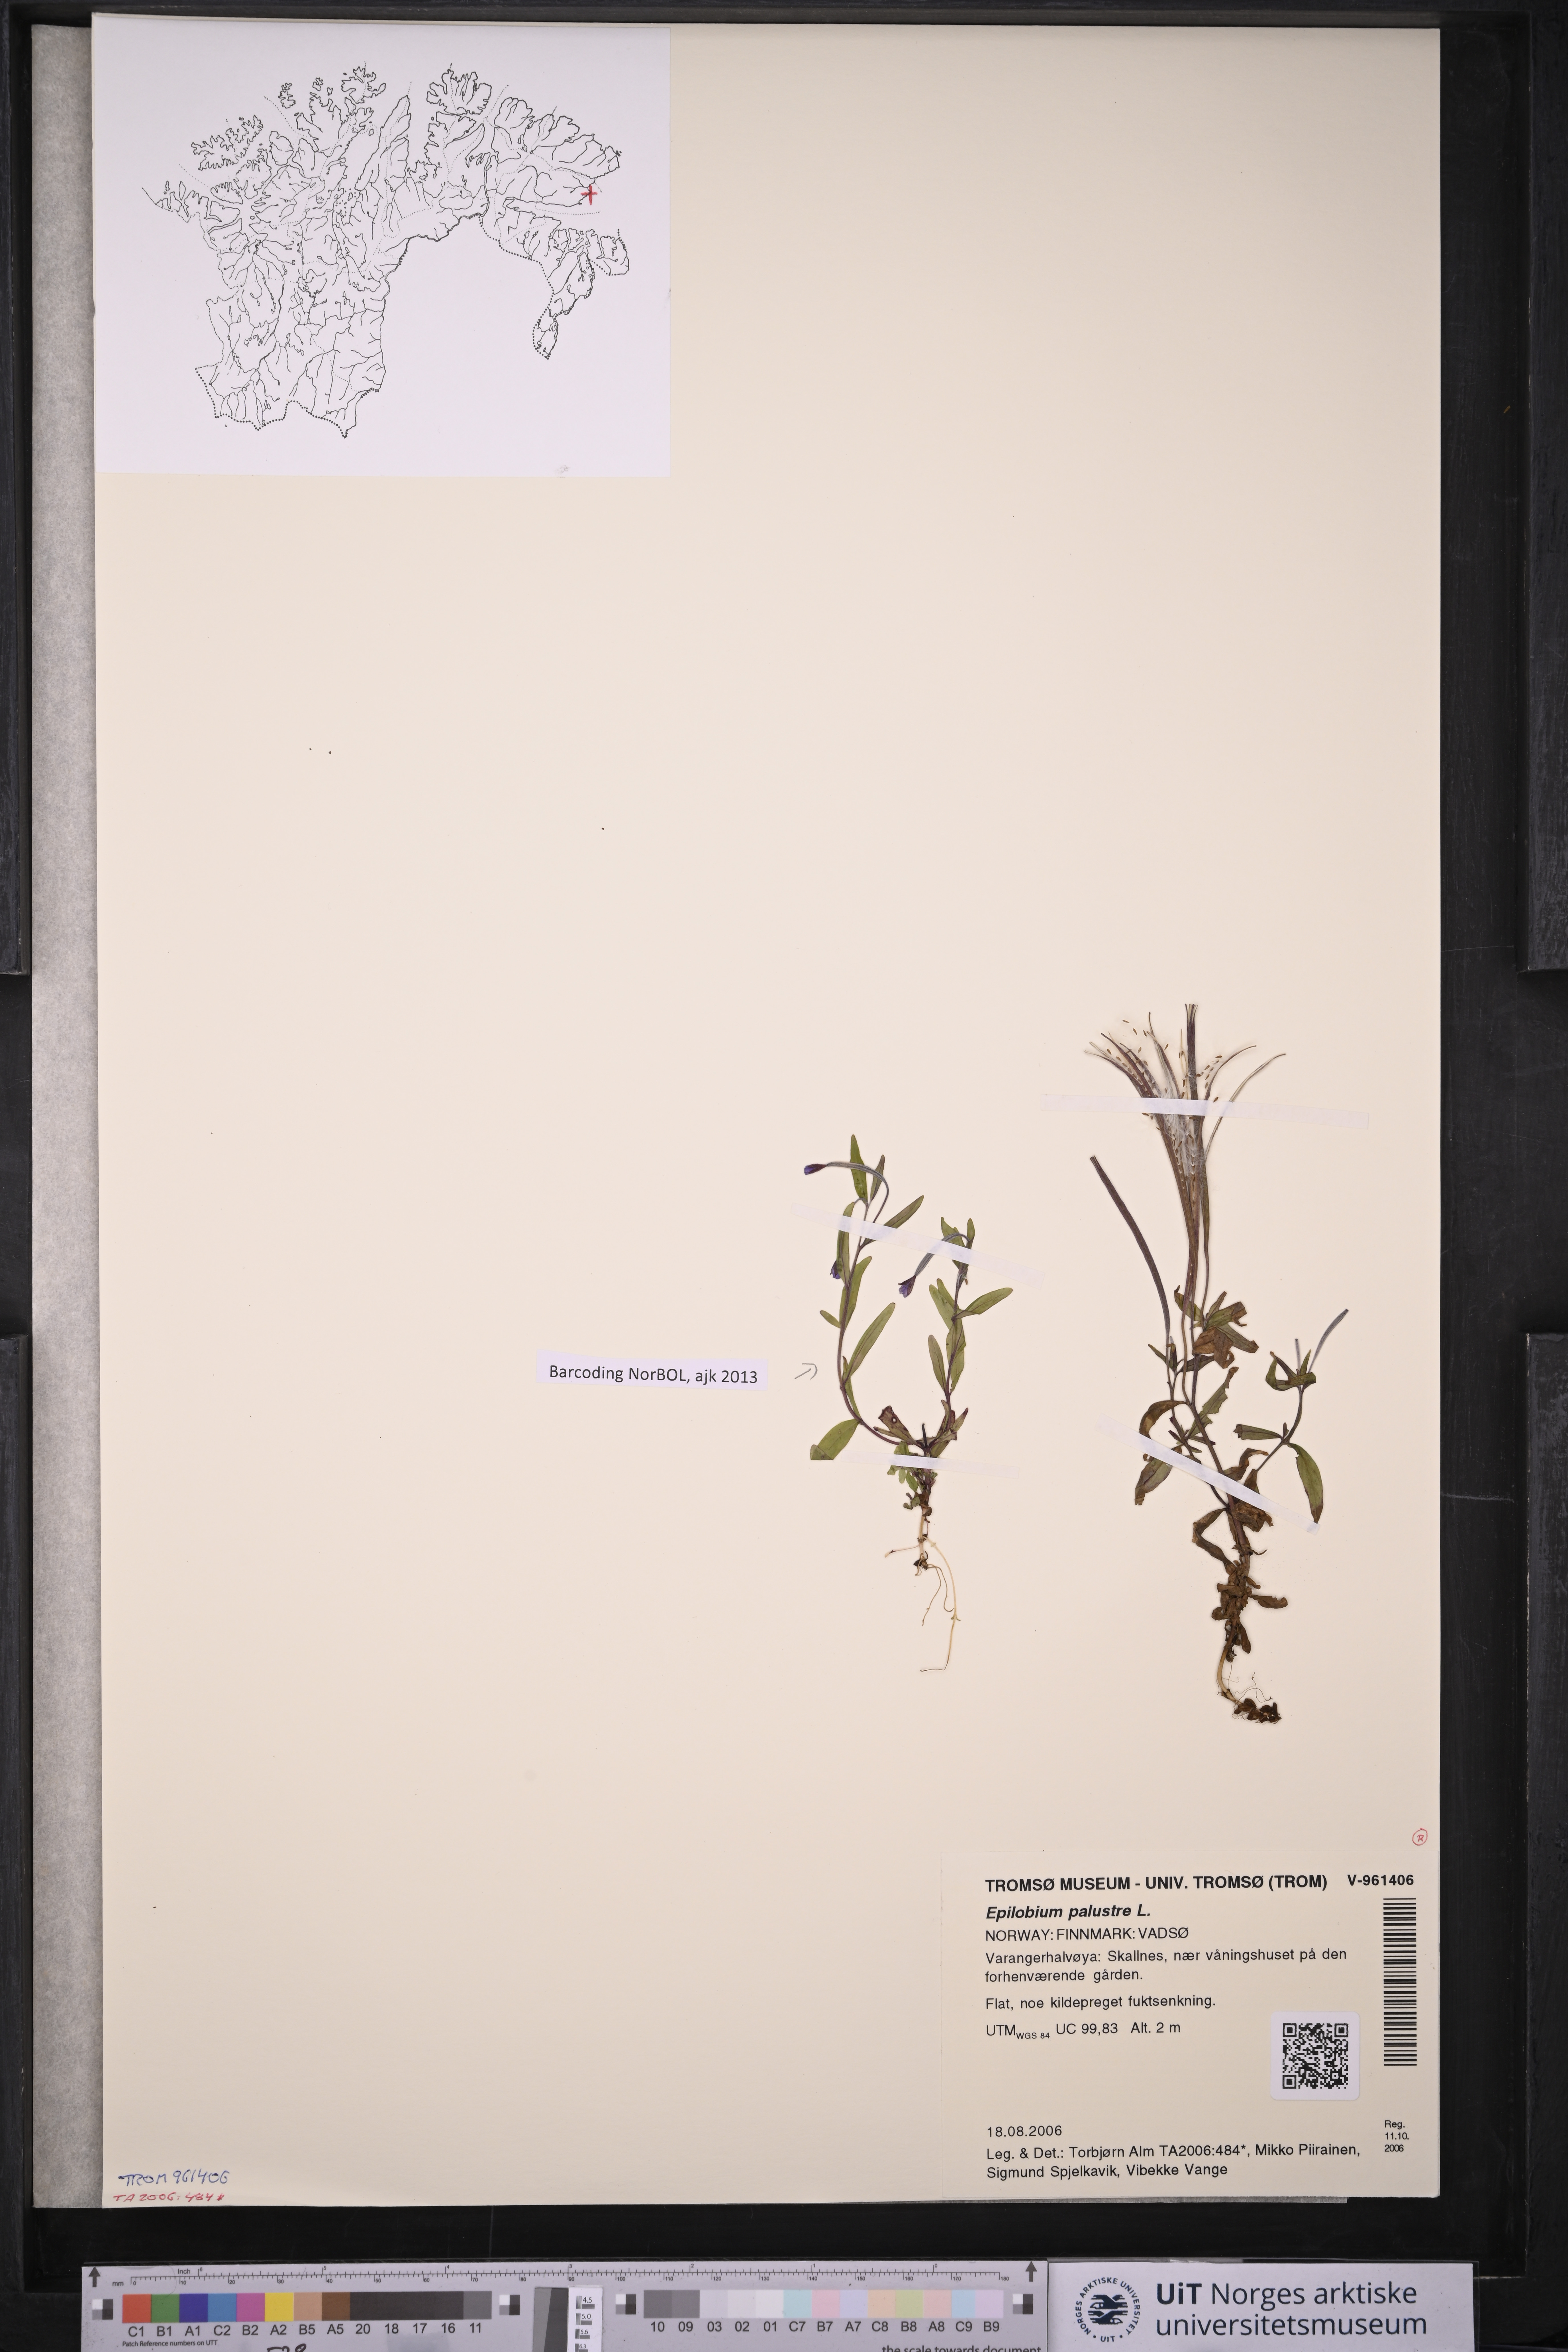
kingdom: Plantae
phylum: Tracheophyta
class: Magnoliopsida
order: Myrtales
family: Onagraceae
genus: Epilobium
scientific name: Epilobium palustre
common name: Marsh willowherb
